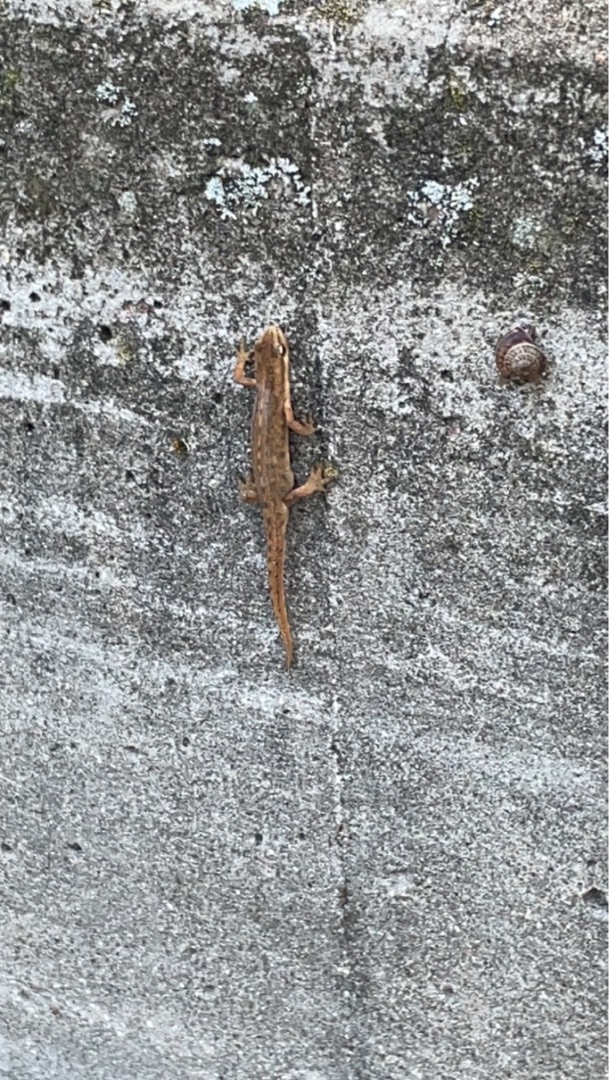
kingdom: Animalia
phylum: Chordata
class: Amphibia
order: Caudata
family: Salamandridae
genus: Lissotriton
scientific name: Lissotriton vulgaris
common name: Lille vandsalamander
